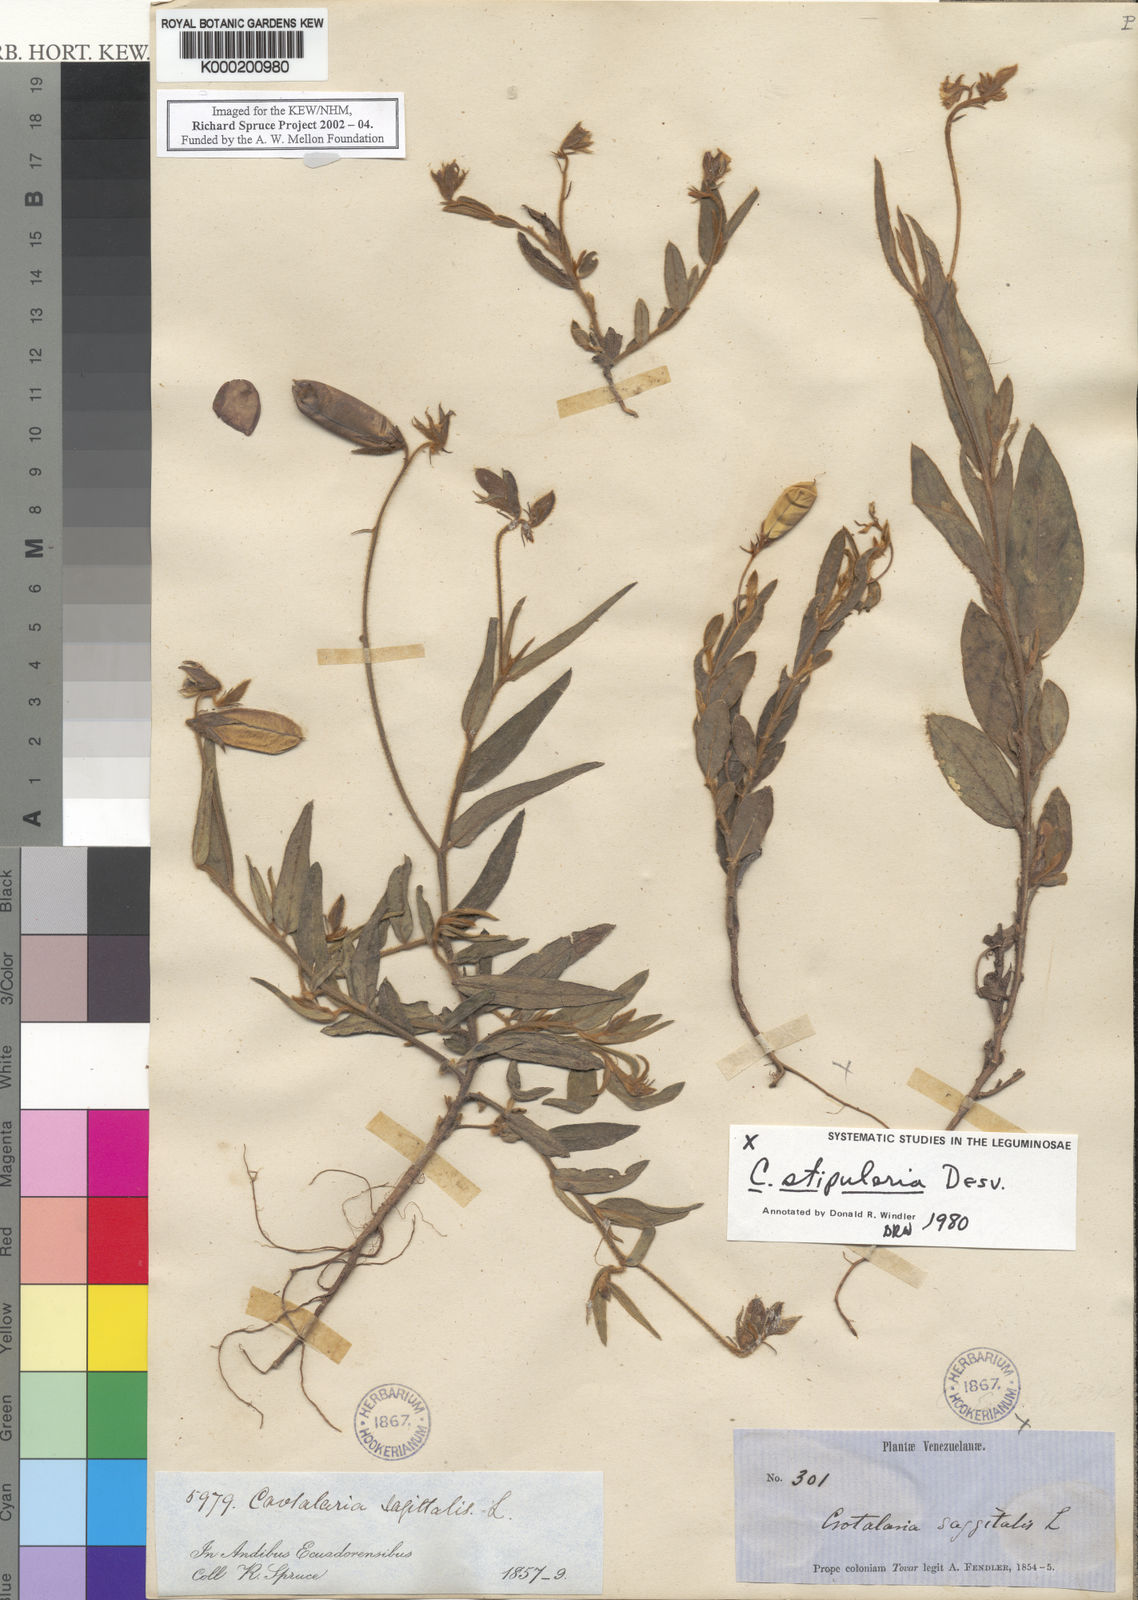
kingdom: Plantae
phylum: Tracheophyta
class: Magnoliopsida
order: Fabales
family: Fabaceae
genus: Crotalaria
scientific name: Crotalaria sagittalis
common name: Arrowhead rattlebox
